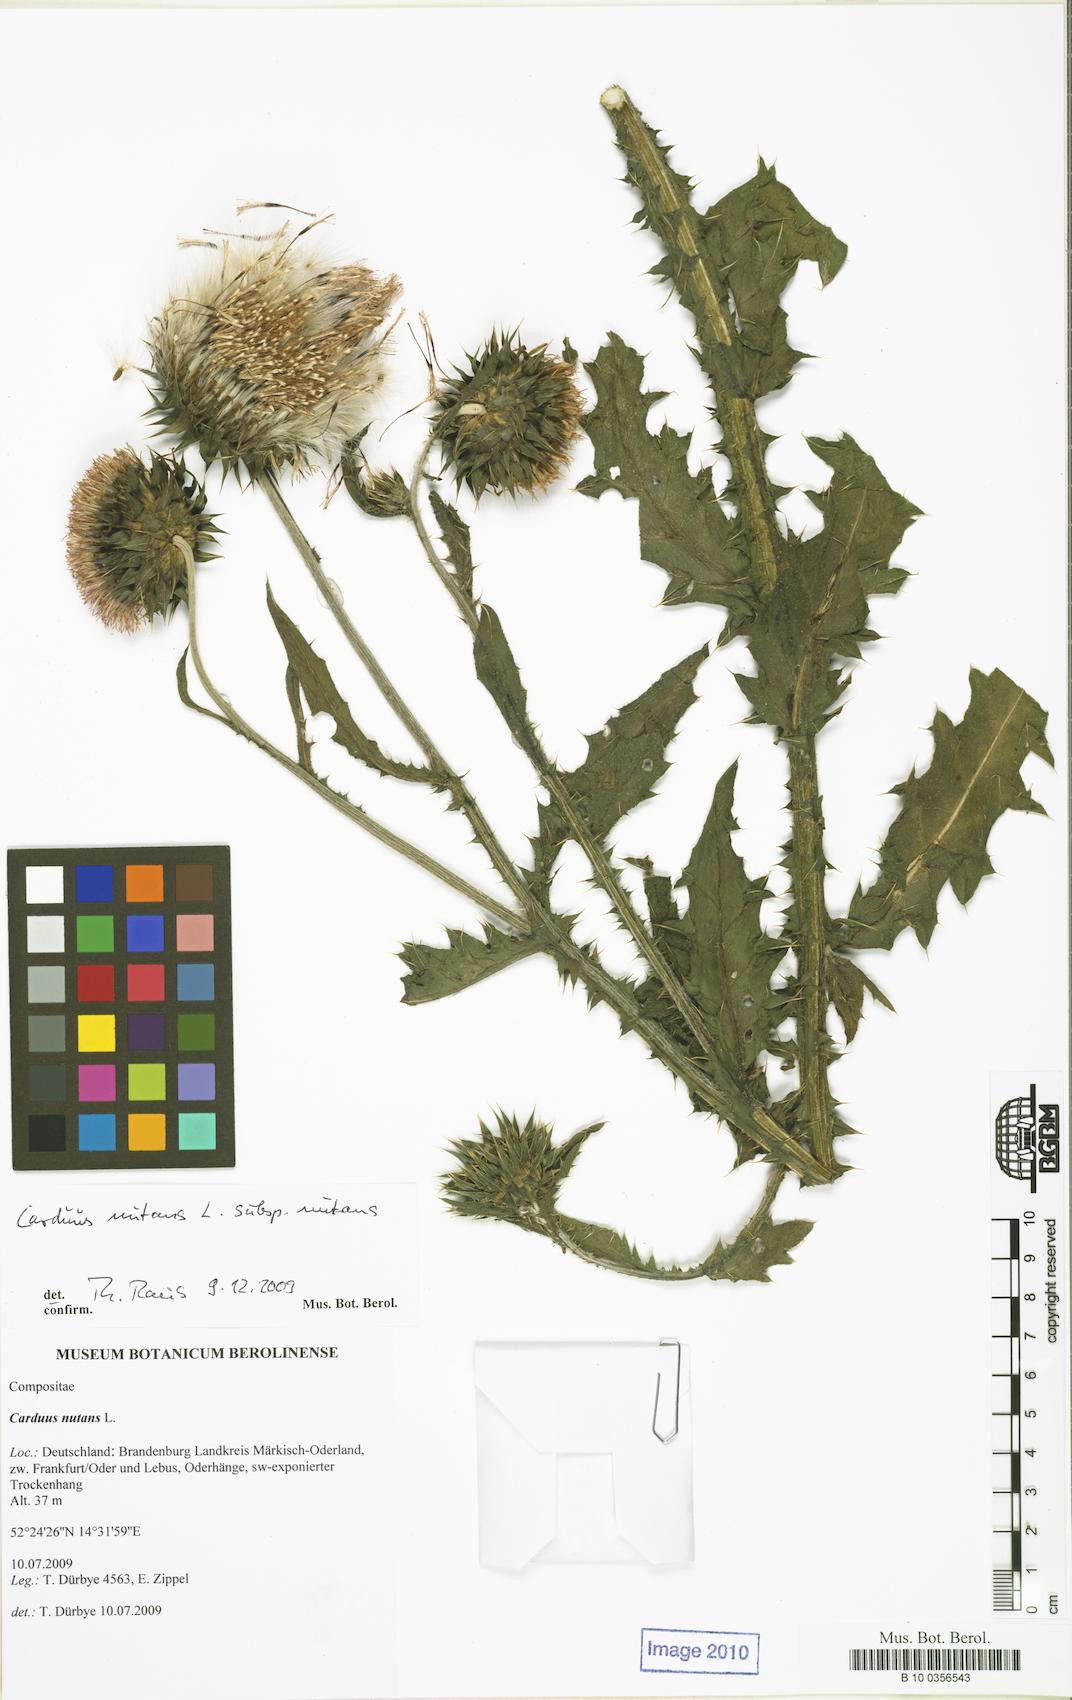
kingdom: Plantae
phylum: Tracheophyta
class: Magnoliopsida
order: Asterales
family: Asteraceae
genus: Carduus
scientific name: Carduus nutans
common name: Musk thistle
